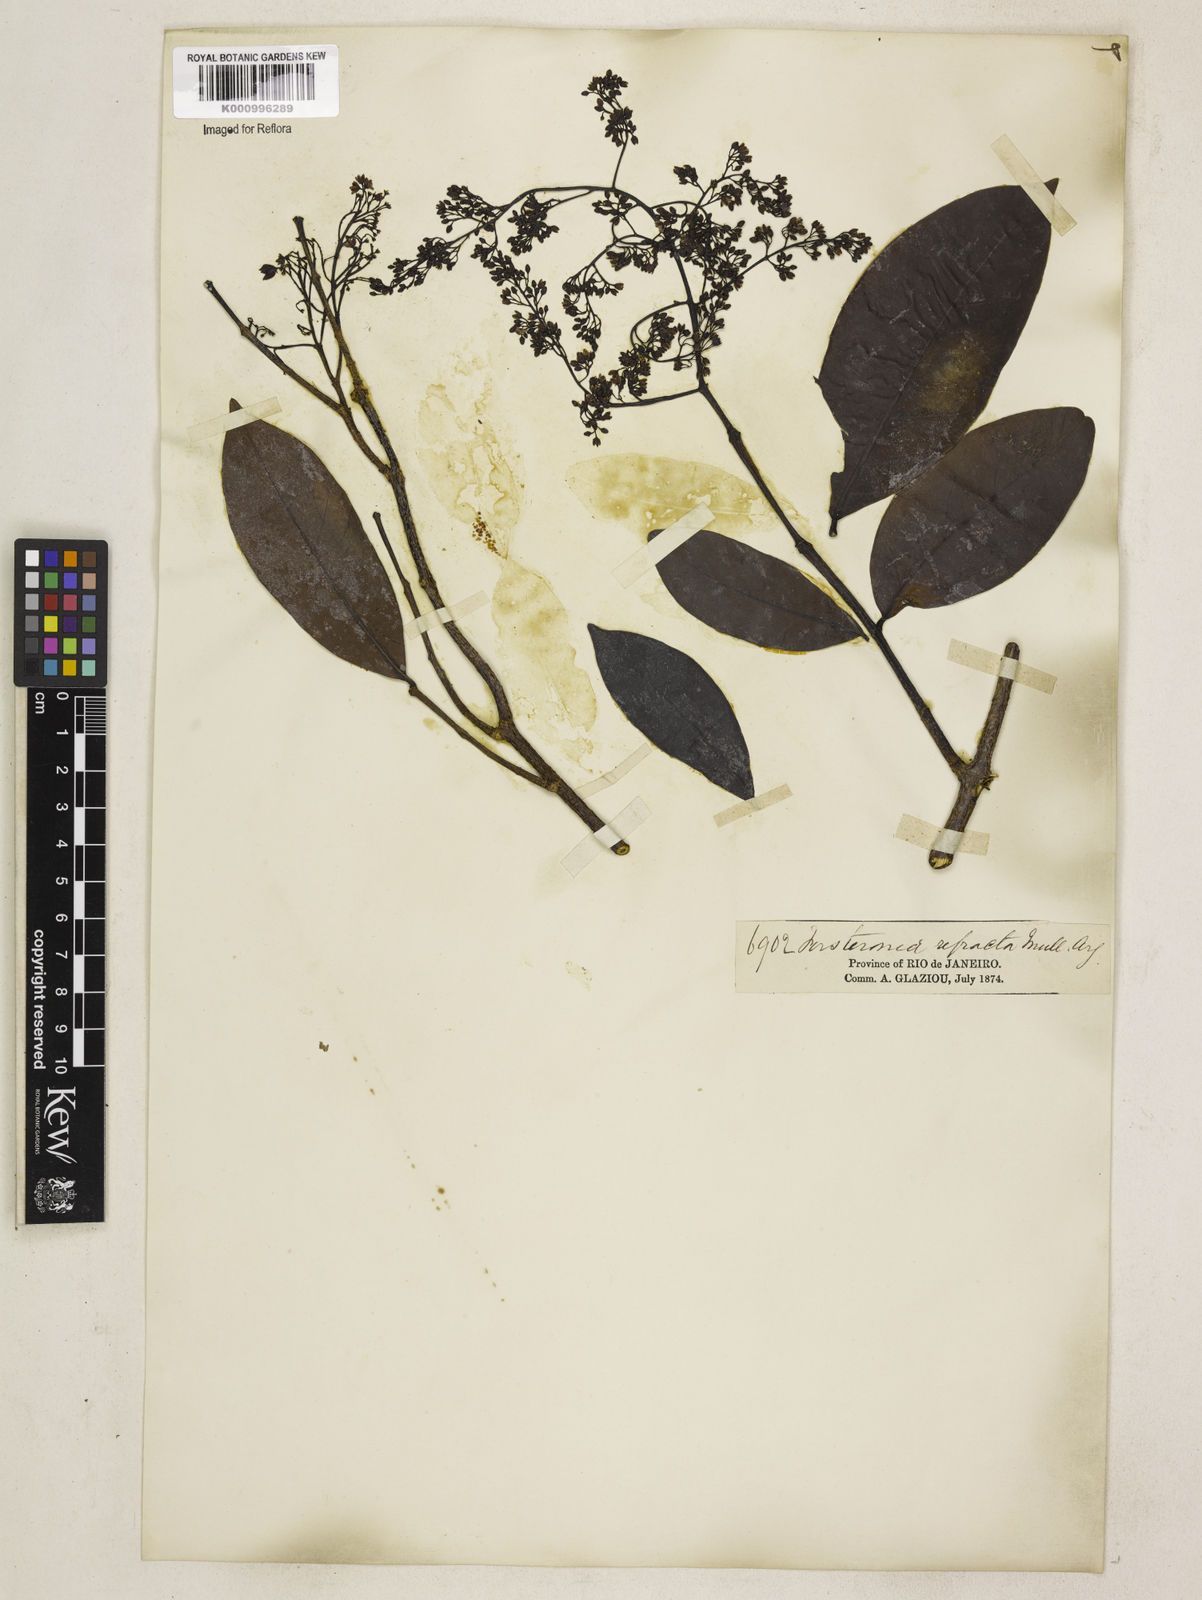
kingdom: Plantae
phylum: Tracheophyta
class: Magnoliopsida
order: Gentianales
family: Apocynaceae
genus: Forsteronia
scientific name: Forsteronia
